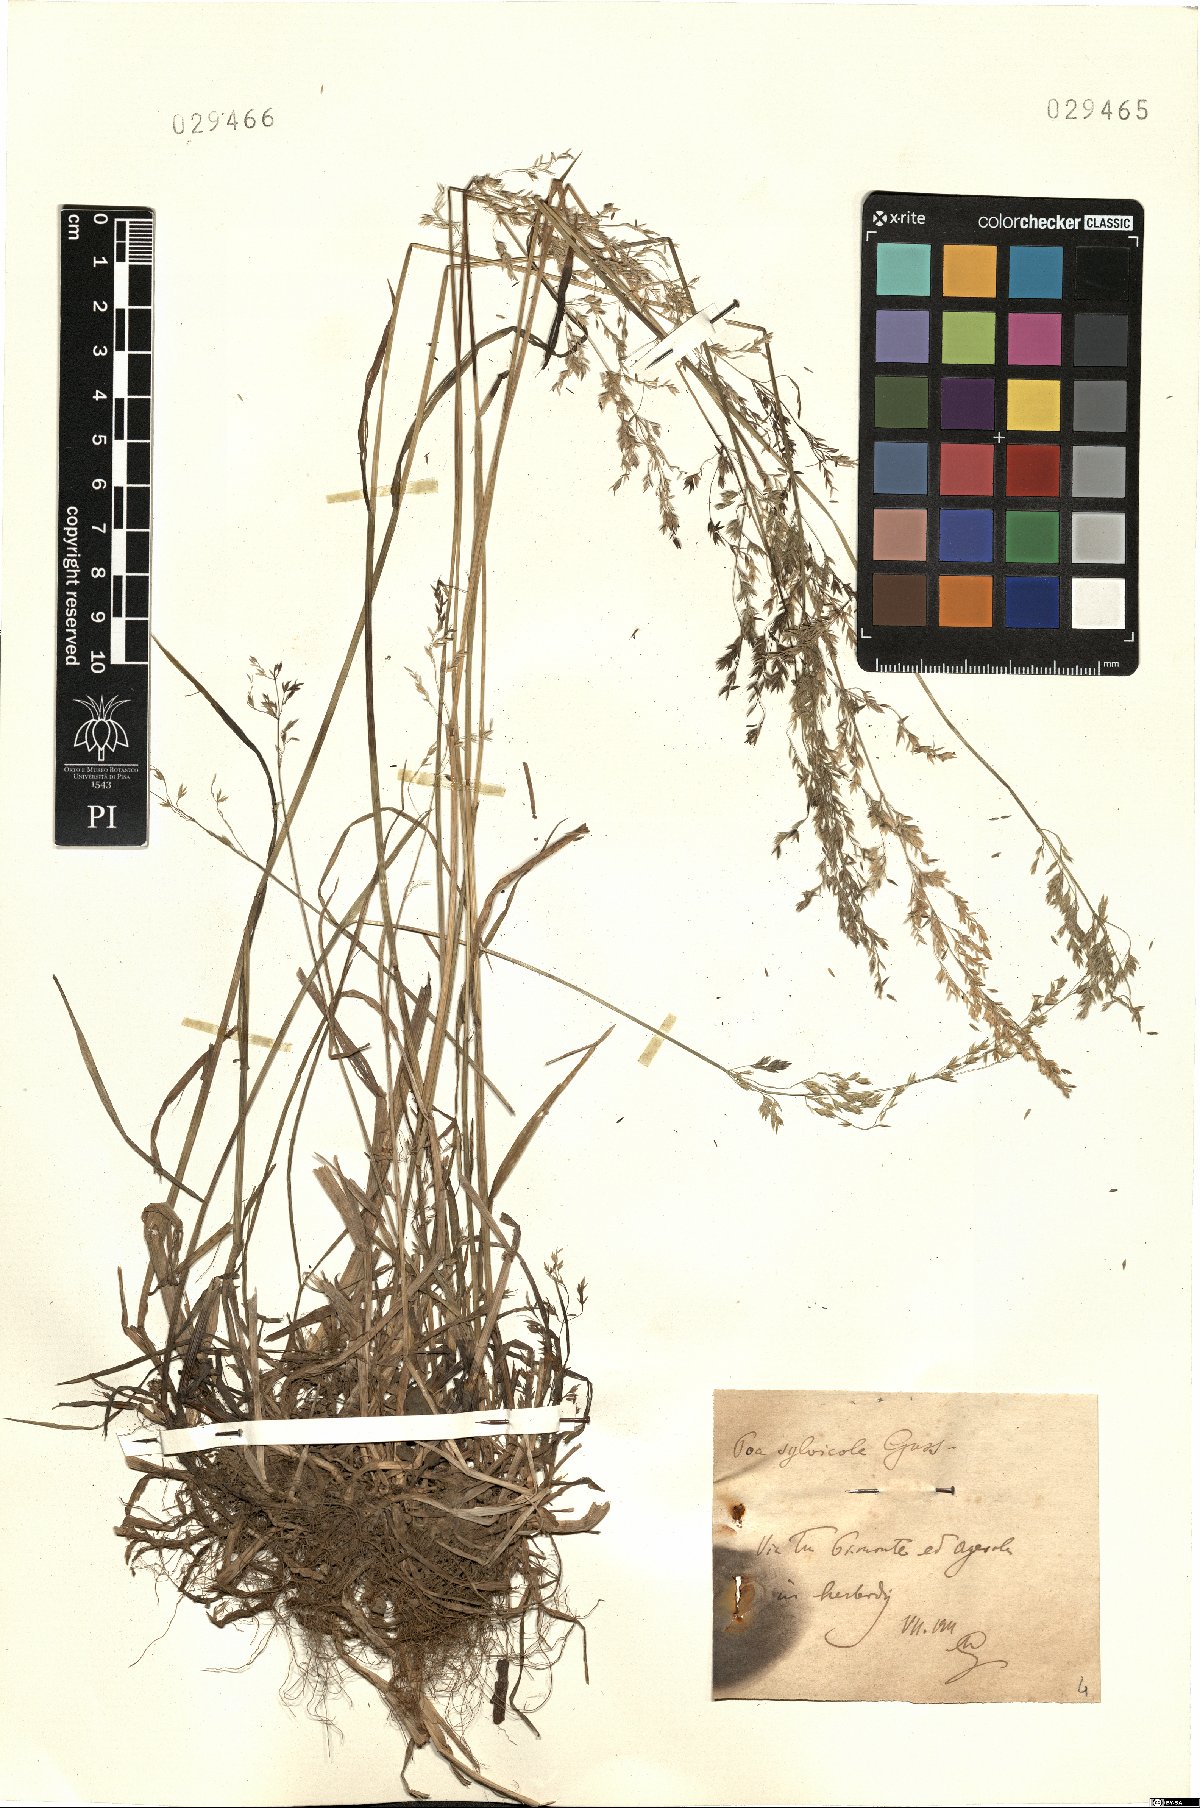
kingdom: Plantae
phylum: Tracheophyta
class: Liliopsida
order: Poales
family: Poaceae
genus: Poa
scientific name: Poa trivialis
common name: Rough bluegrass
